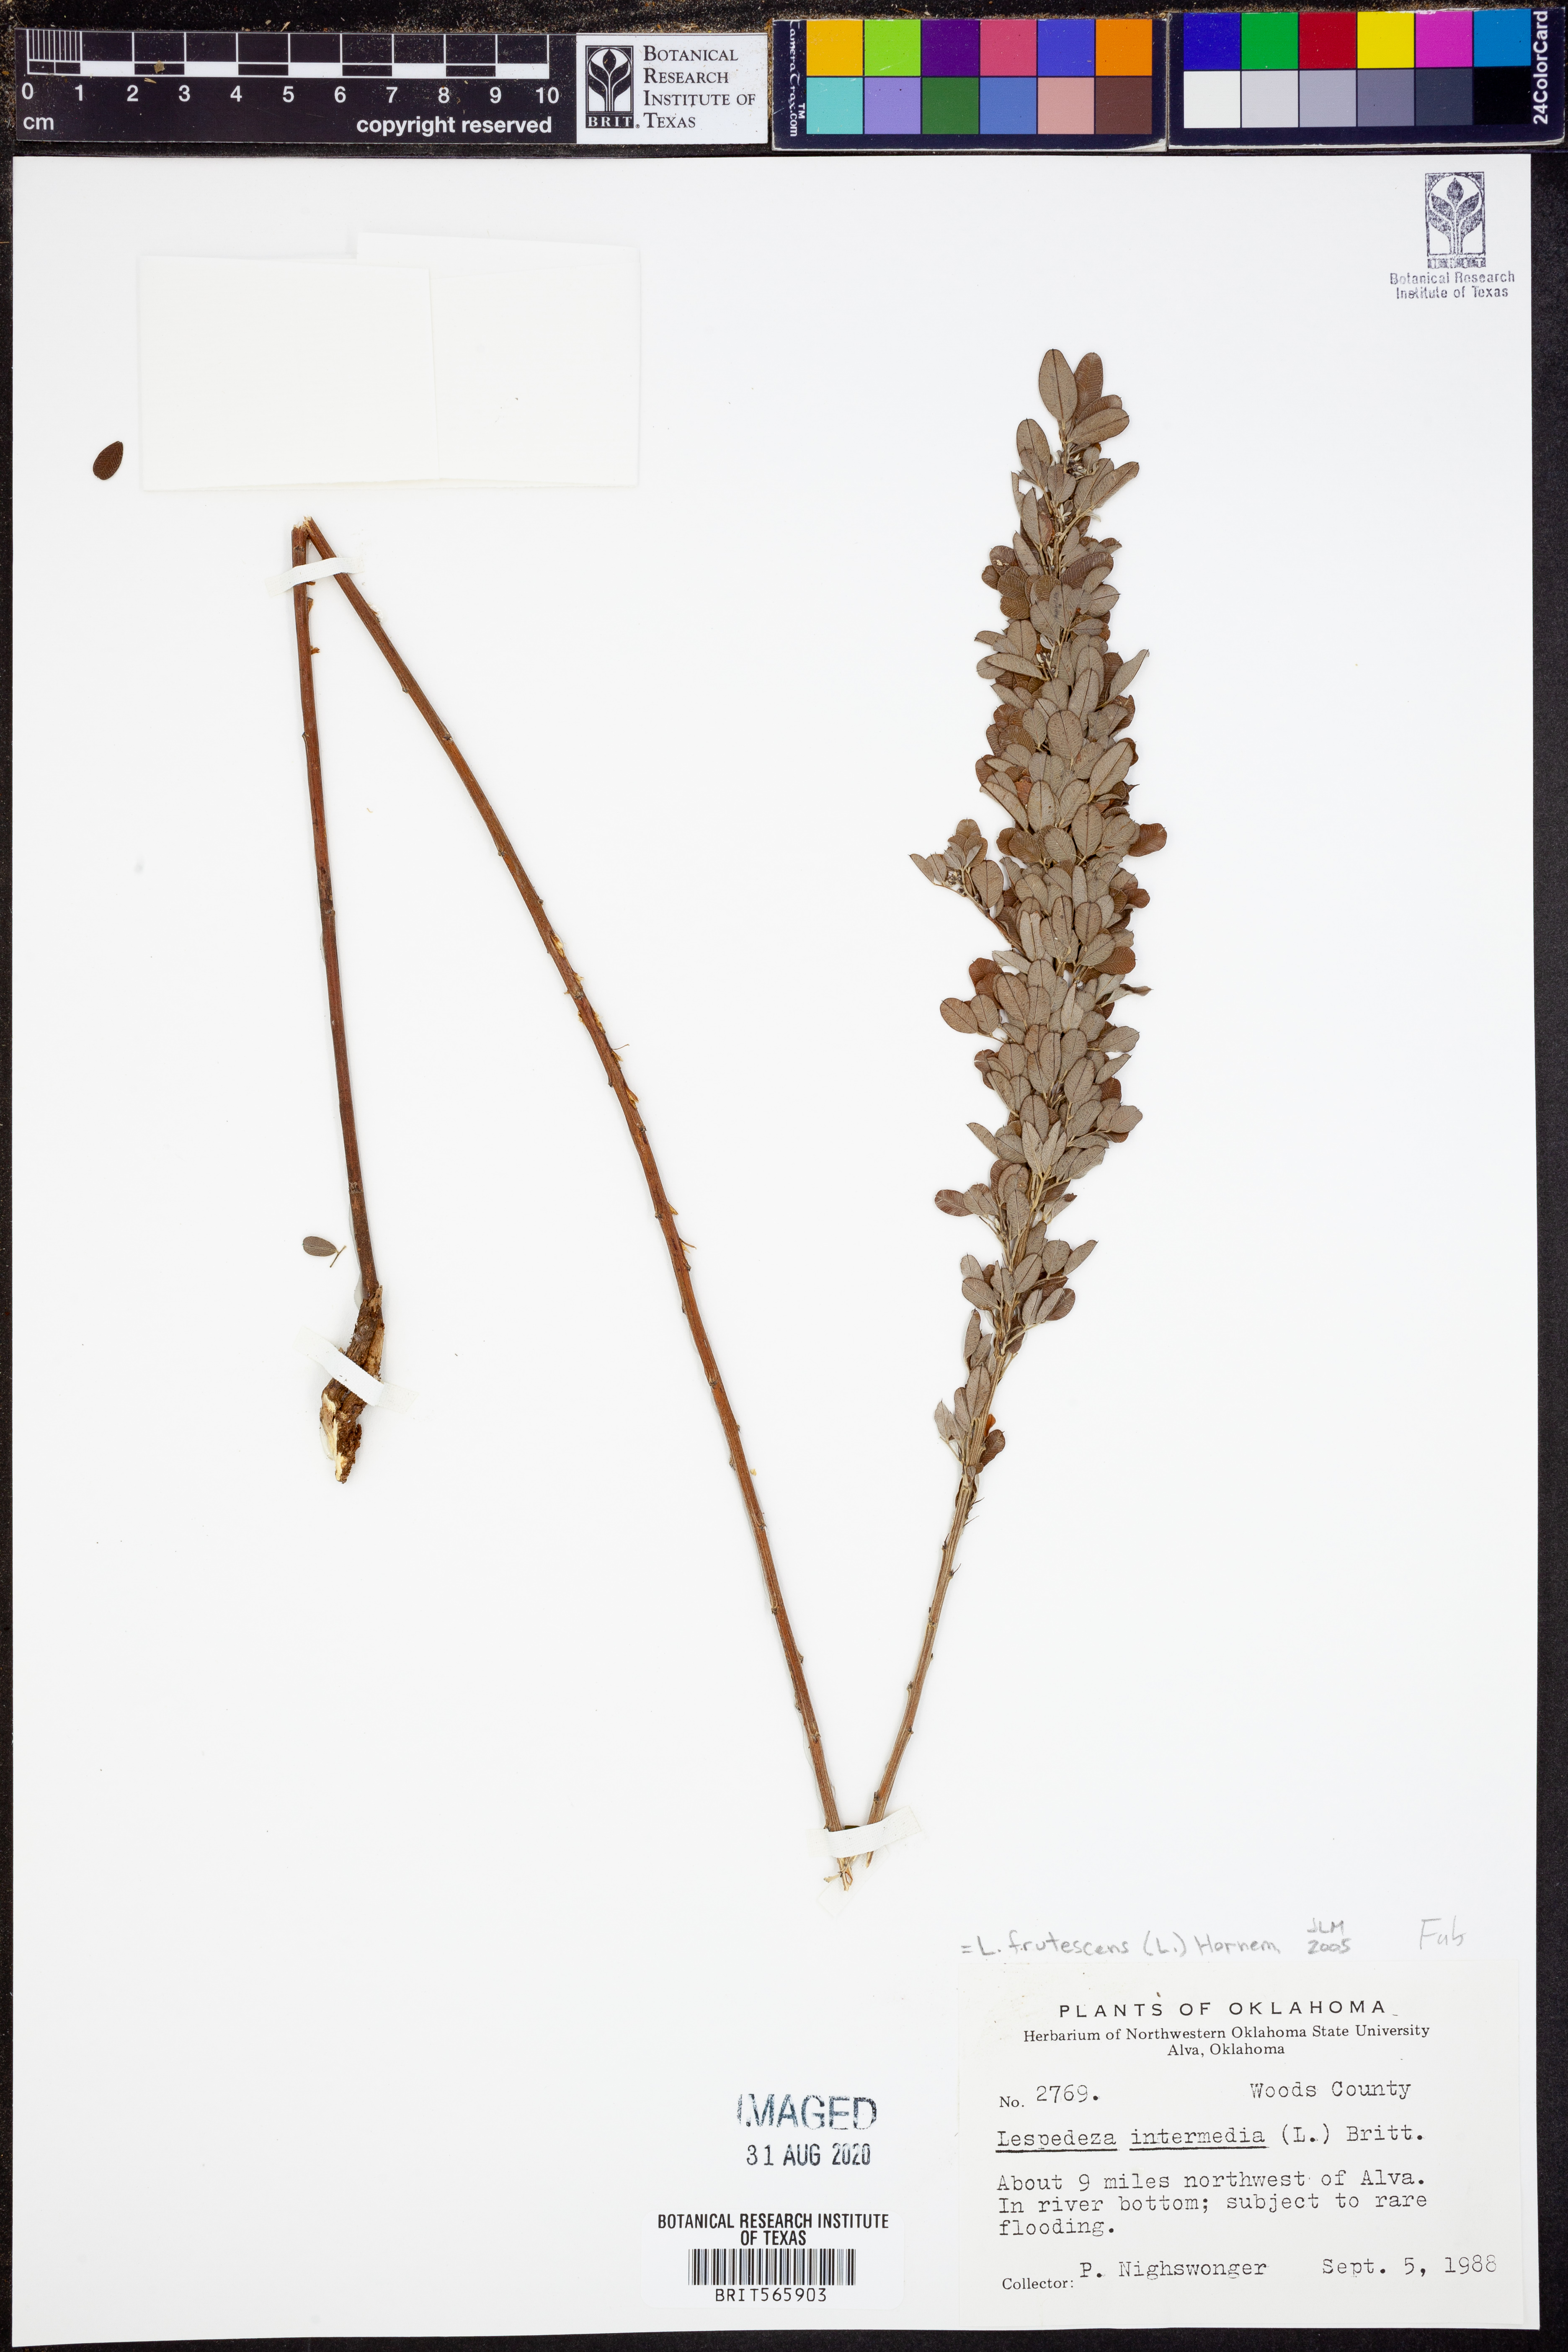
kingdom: Plantae
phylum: Tracheophyta
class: Magnoliopsida
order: Fabales
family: Fabaceae
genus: Lespedeza
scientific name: Lespedeza violacea
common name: Wand bush-clover
